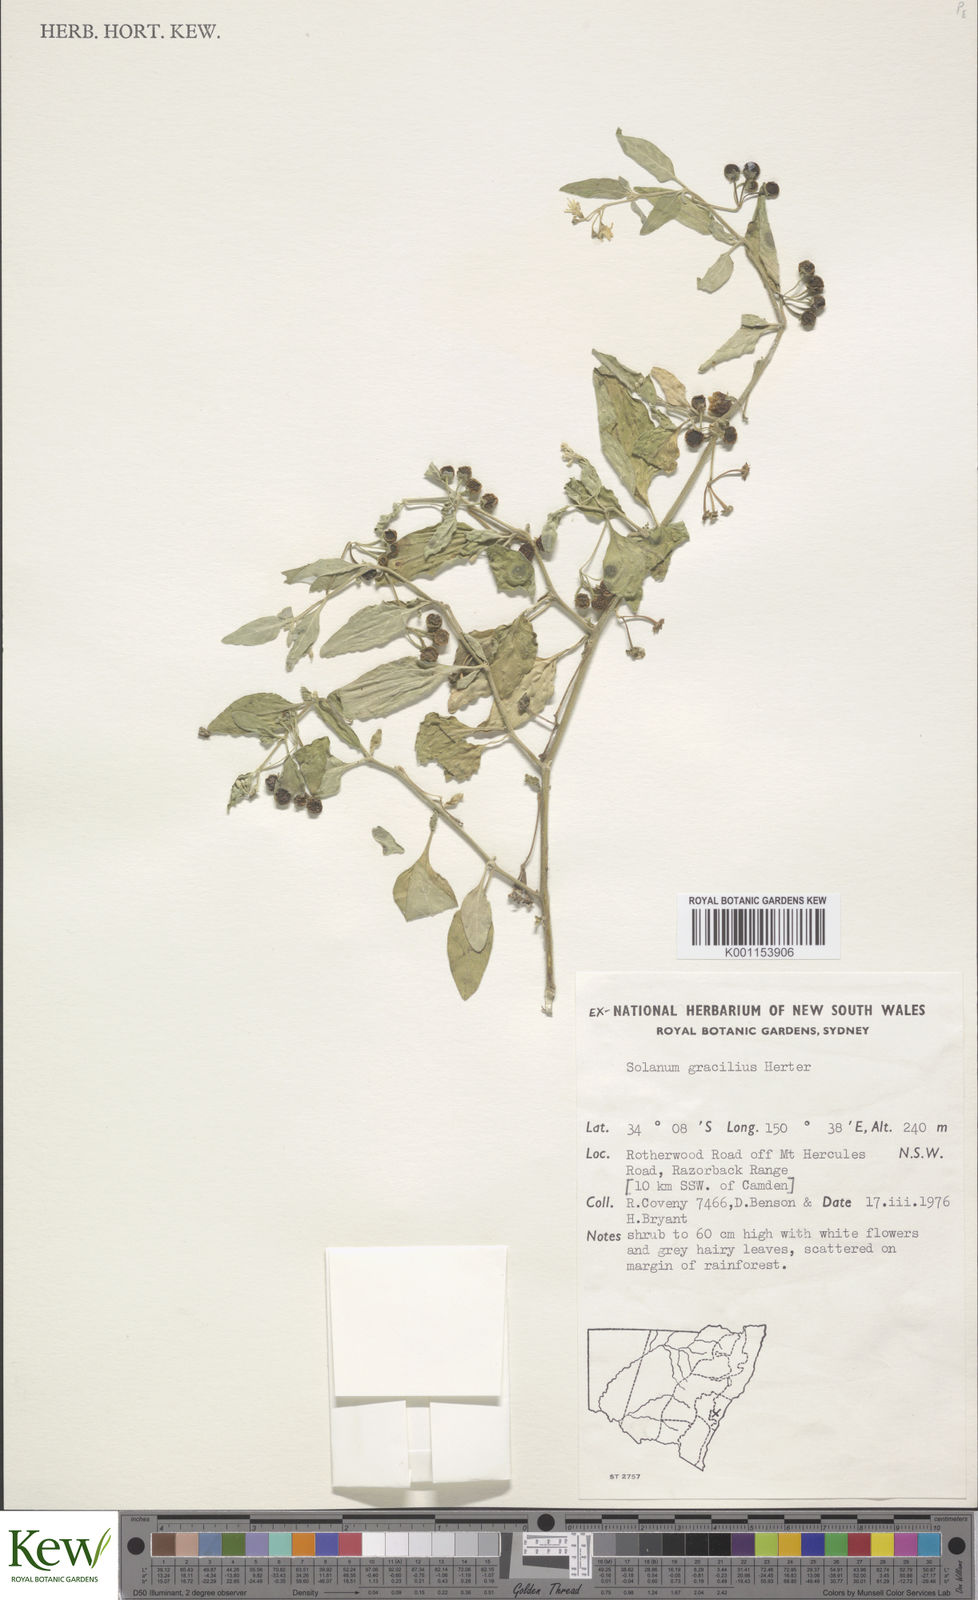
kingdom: Plantae
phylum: Tracheophyta
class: Magnoliopsida
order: Solanales
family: Solanaceae
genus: Solanum
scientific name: Solanum chenopodioides
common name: Tall nightshade
